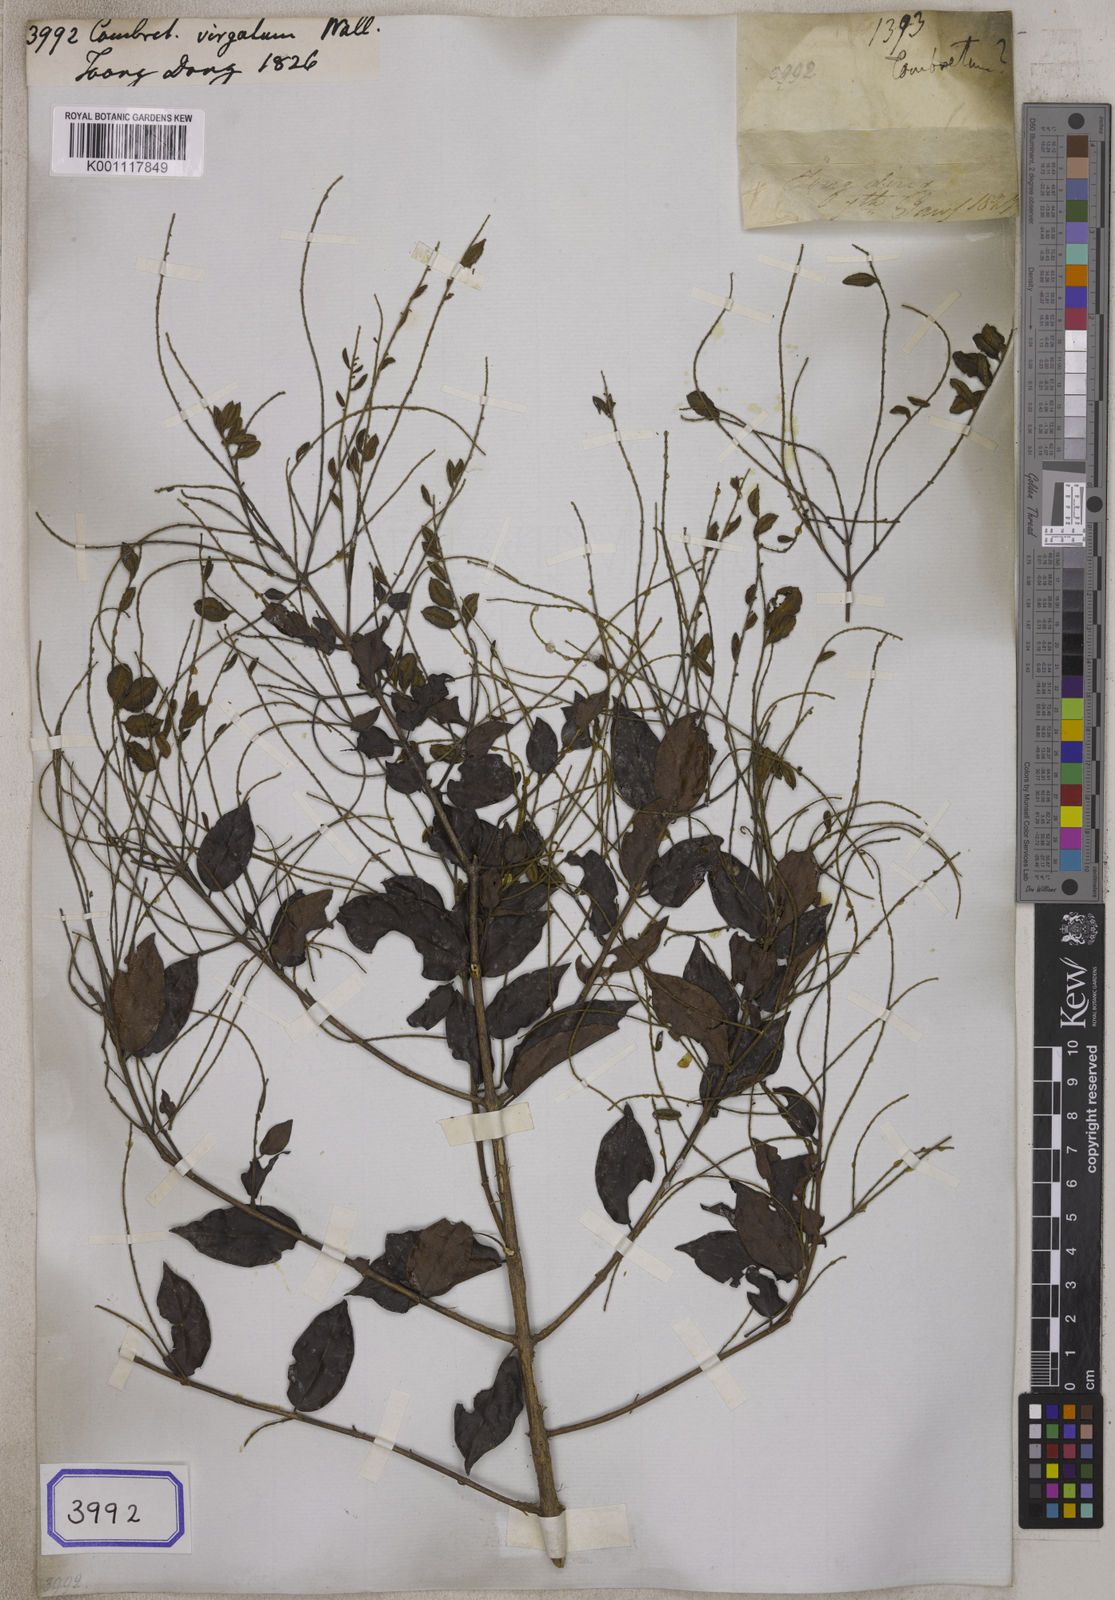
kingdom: Plantae
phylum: Tracheophyta
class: Magnoliopsida
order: Myrtales
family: Combretaceae
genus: Combretum
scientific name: Combretum apetalum
